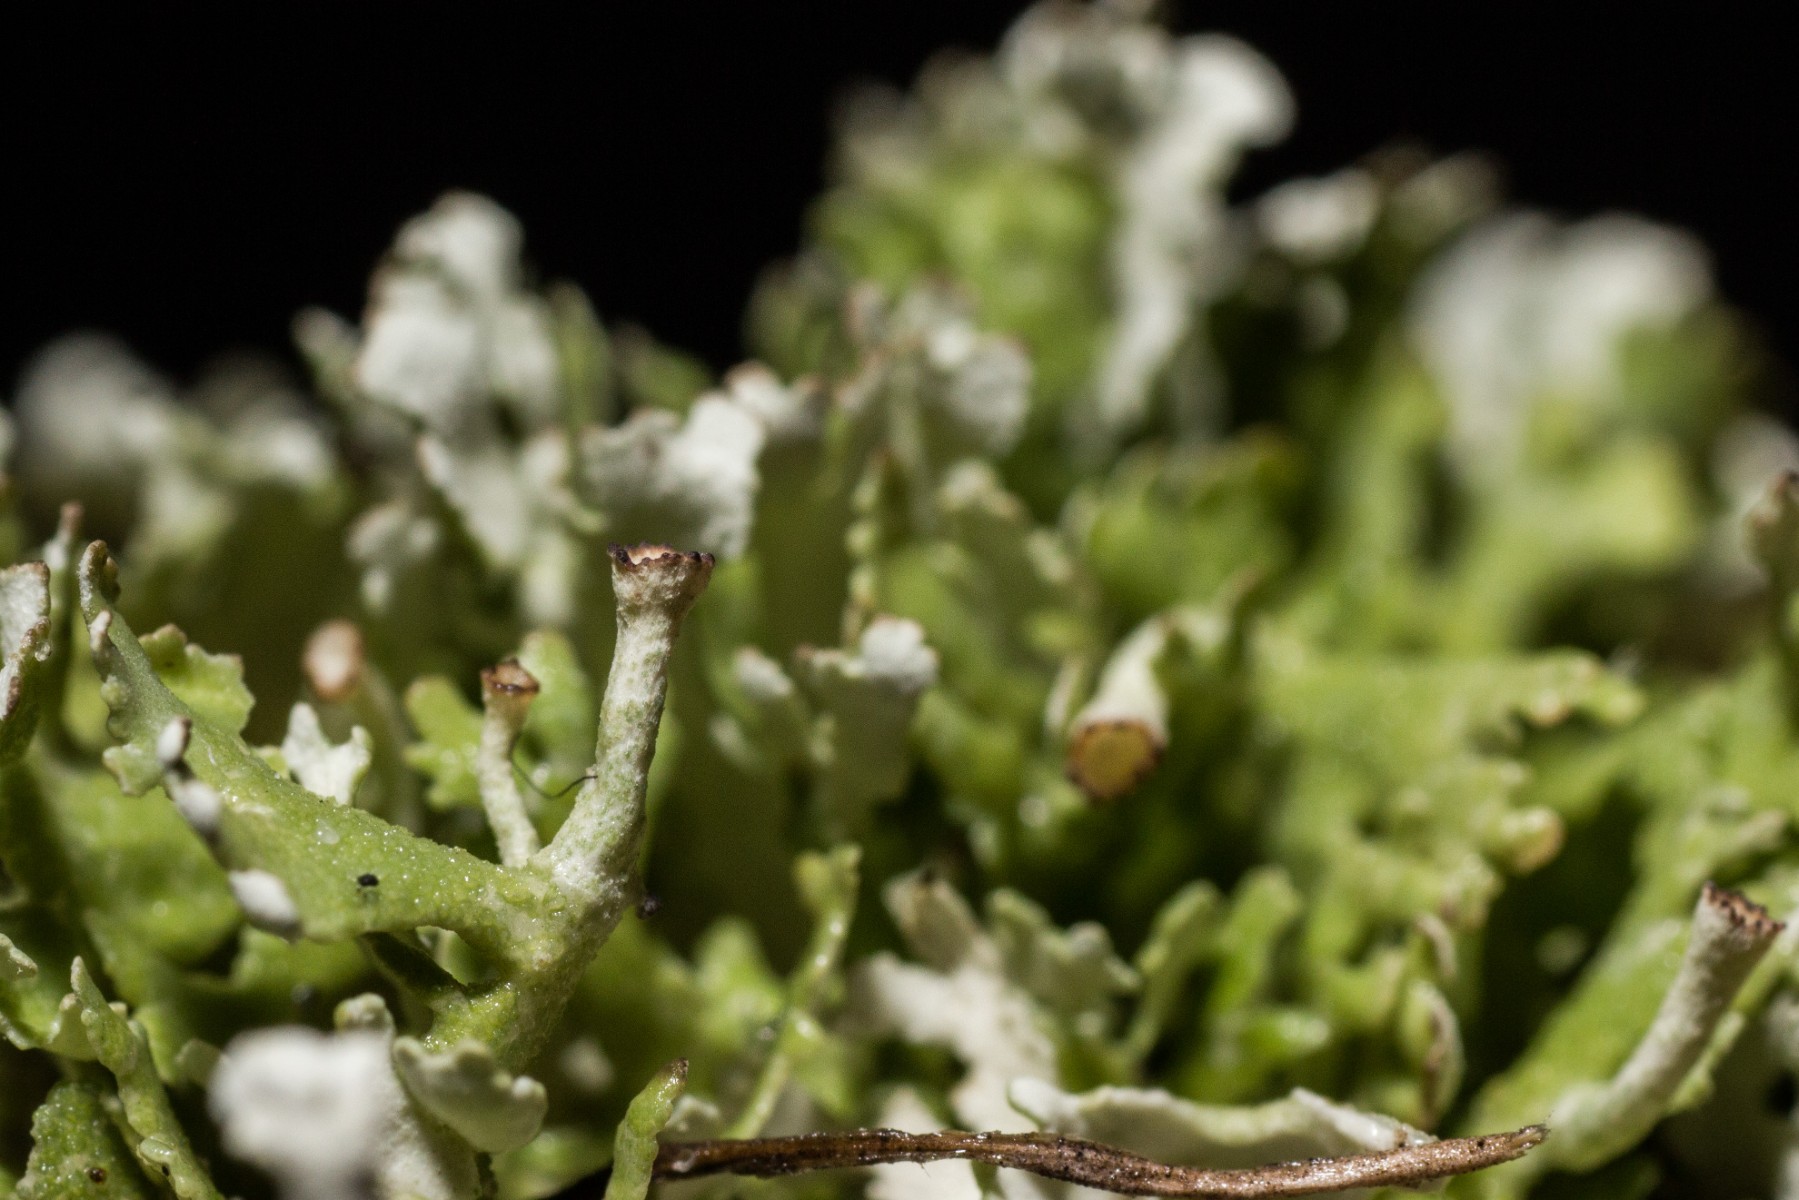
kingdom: Fungi
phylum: Ascomycota
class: Lecanoromycetes
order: Lecanorales
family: Cladoniaceae
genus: Cladonia
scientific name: Cladonia foliacea
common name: fliget bægerlav
